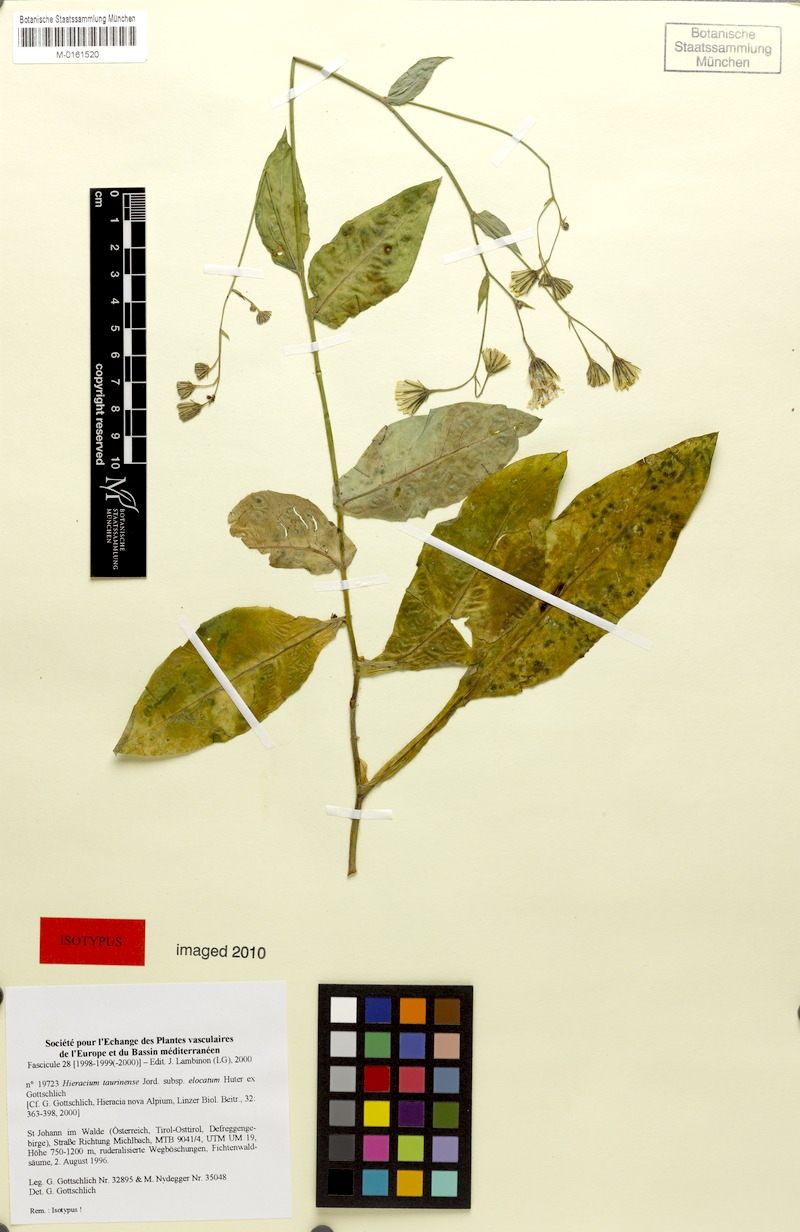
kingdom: Plantae
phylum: Tracheophyta
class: Magnoliopsida
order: Asterales
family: Asteraceae
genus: Hieracium
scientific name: Hieracium symphytaceum
